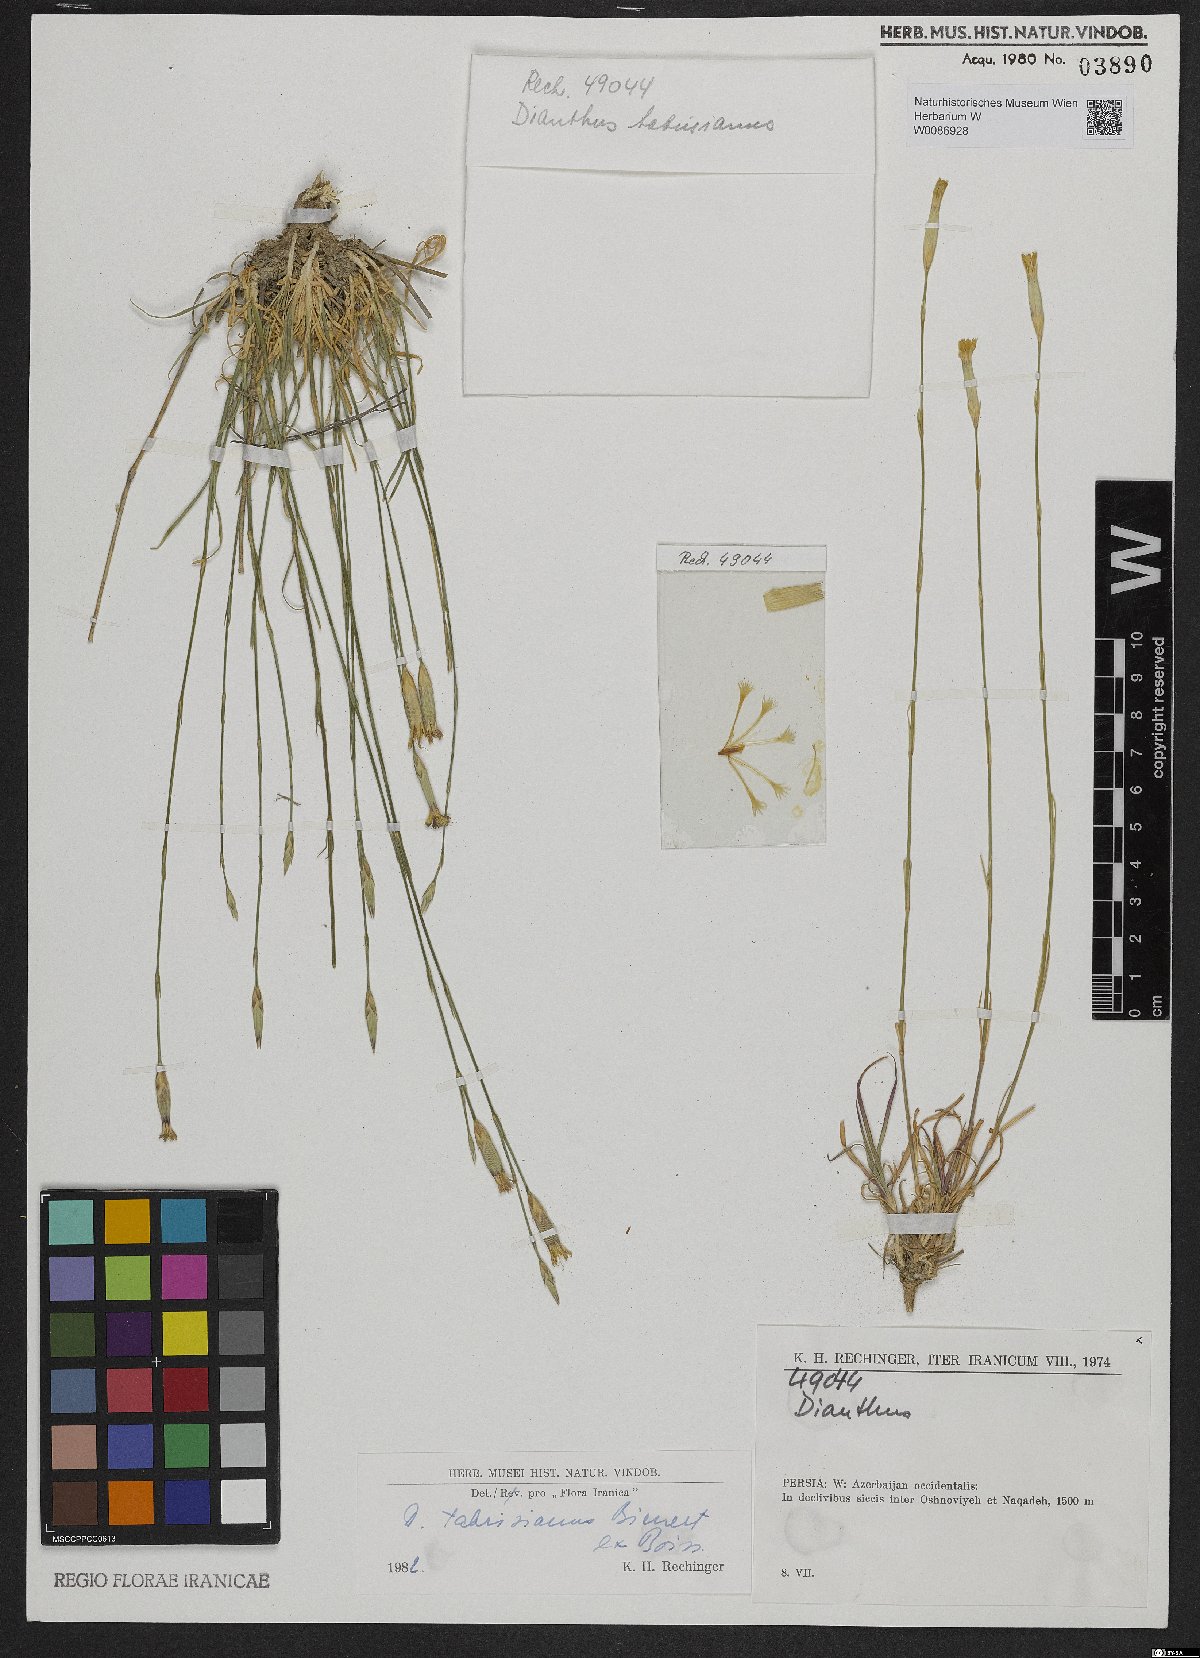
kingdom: Plantae
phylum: Tracheophyta
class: Magnoliopsida
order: Caryophyllales
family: Caryophyllaceae
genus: Dianthus
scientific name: Dianthus tabrisianus
